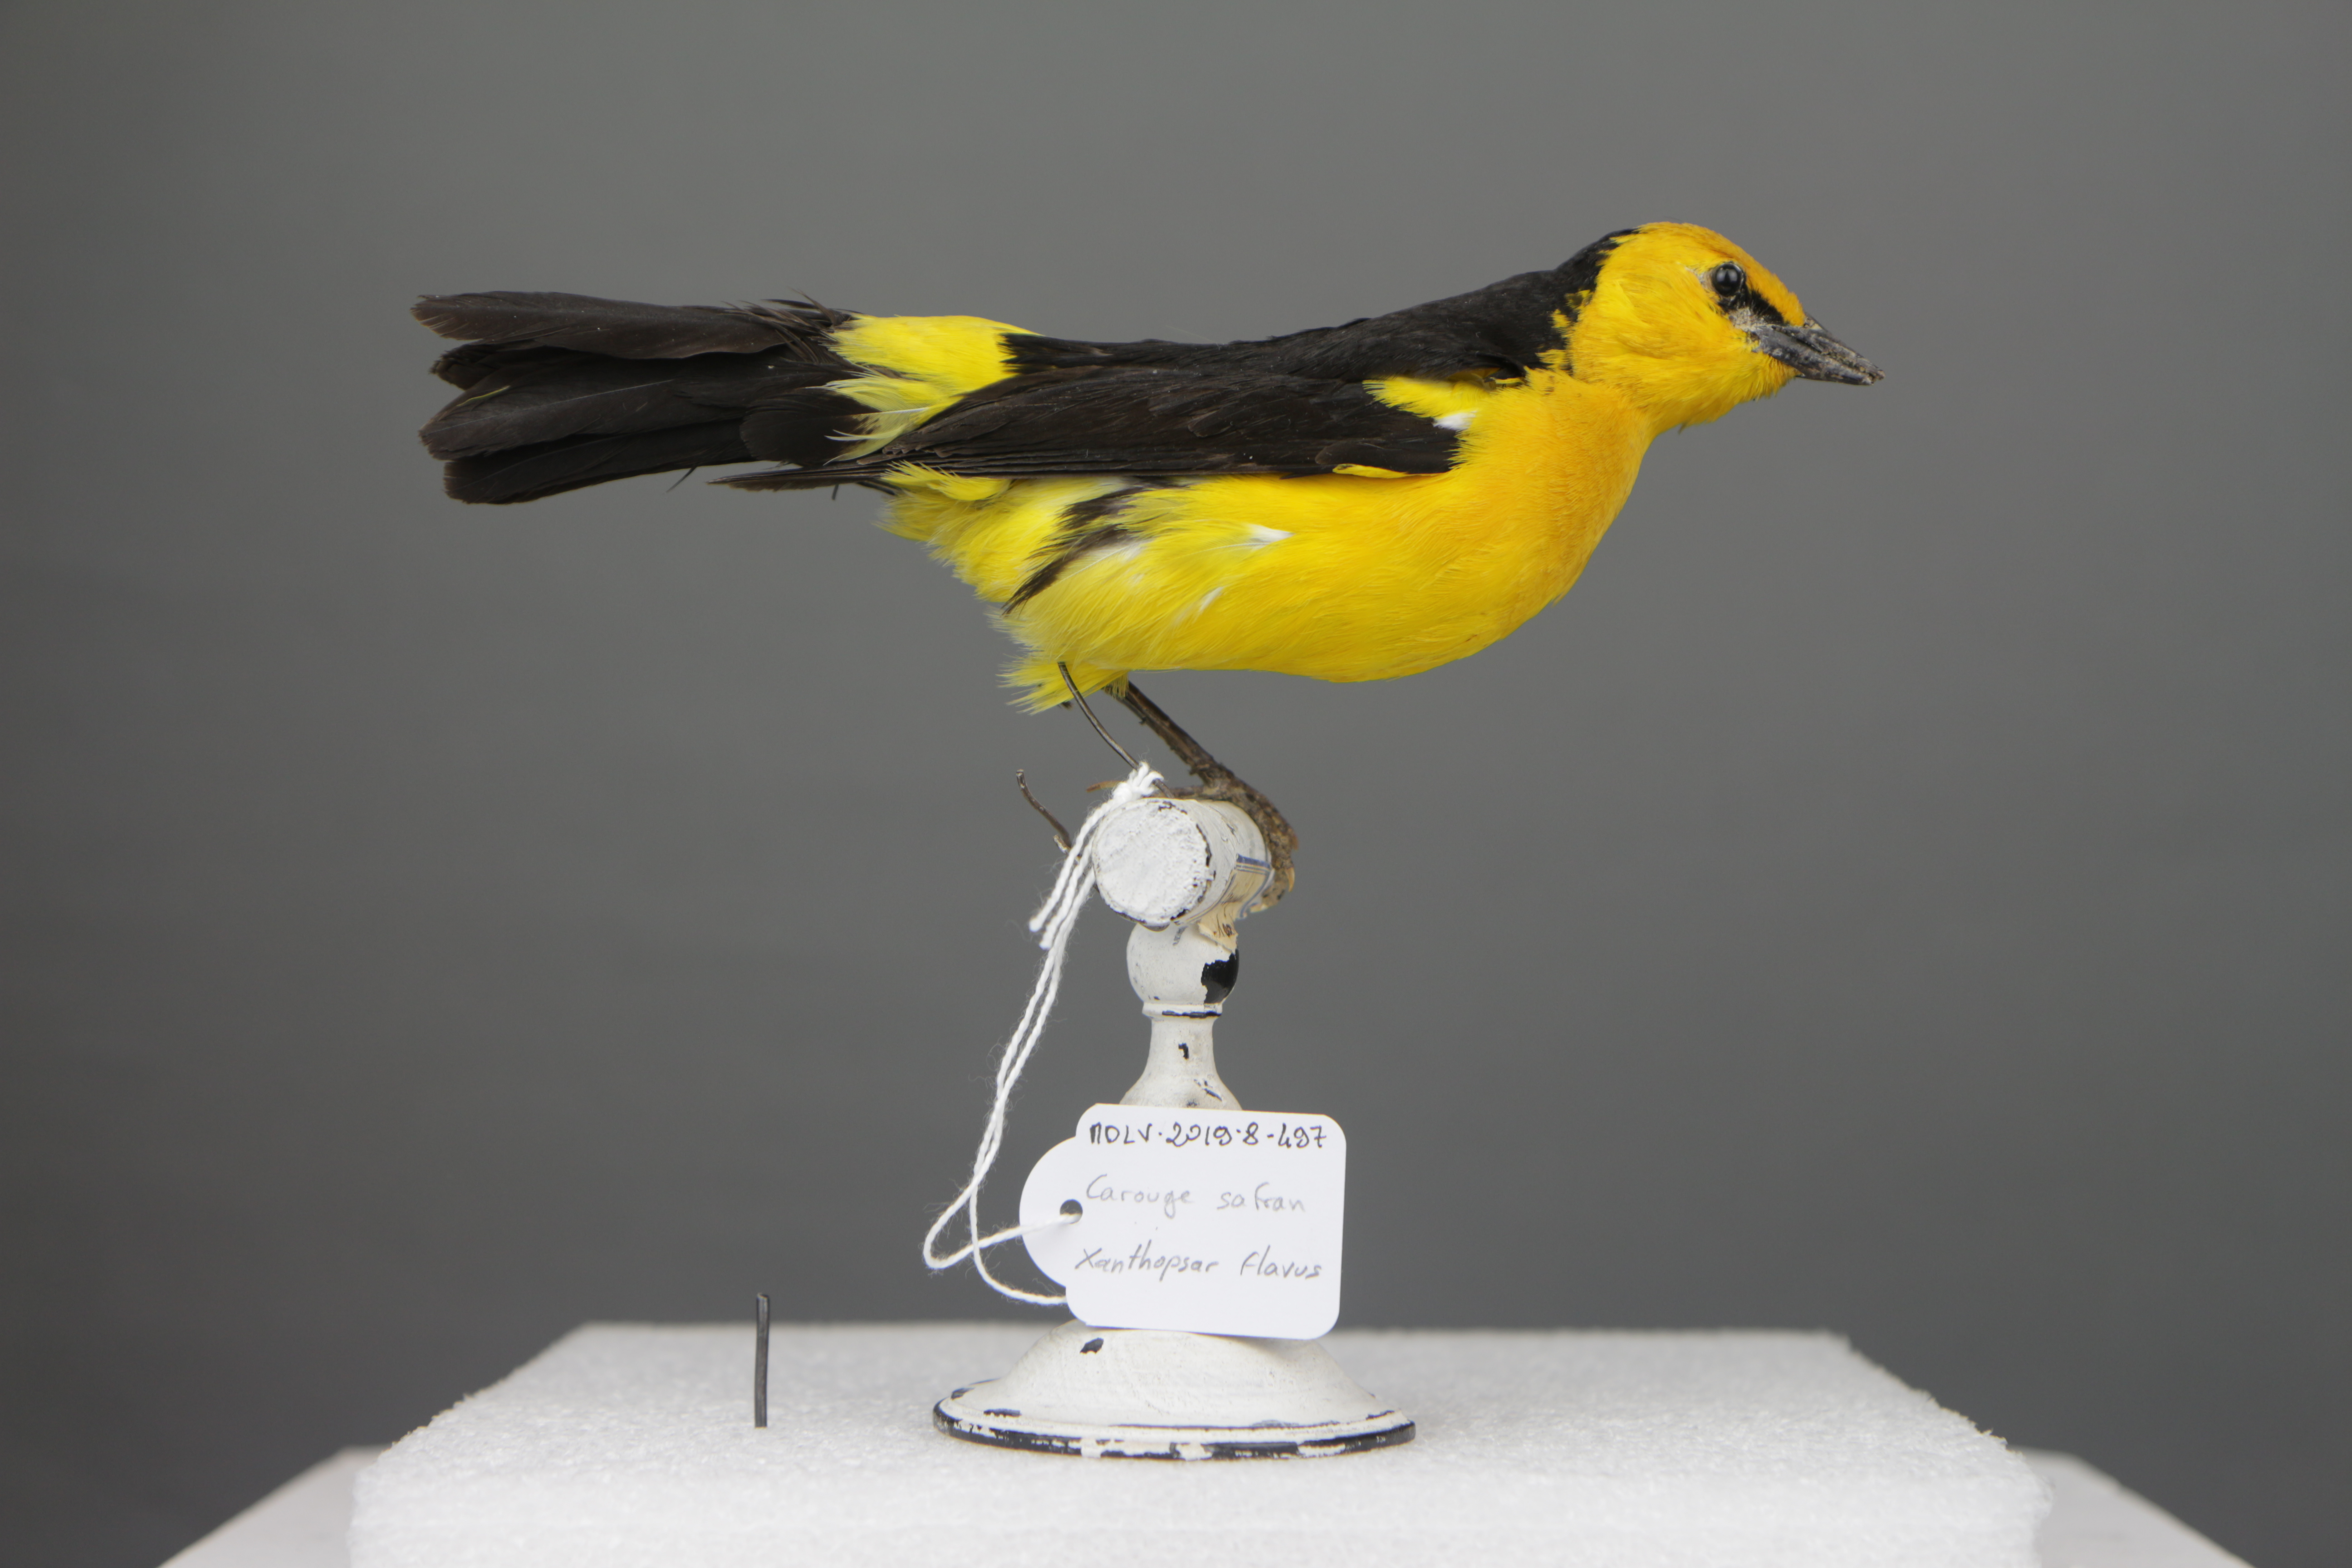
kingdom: Animalia
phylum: Chordata
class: Aves
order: Passeriformes
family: Icteridae
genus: Xanthopsar
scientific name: Xanthopsar flavus
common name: Saffron-cowled blackbird
